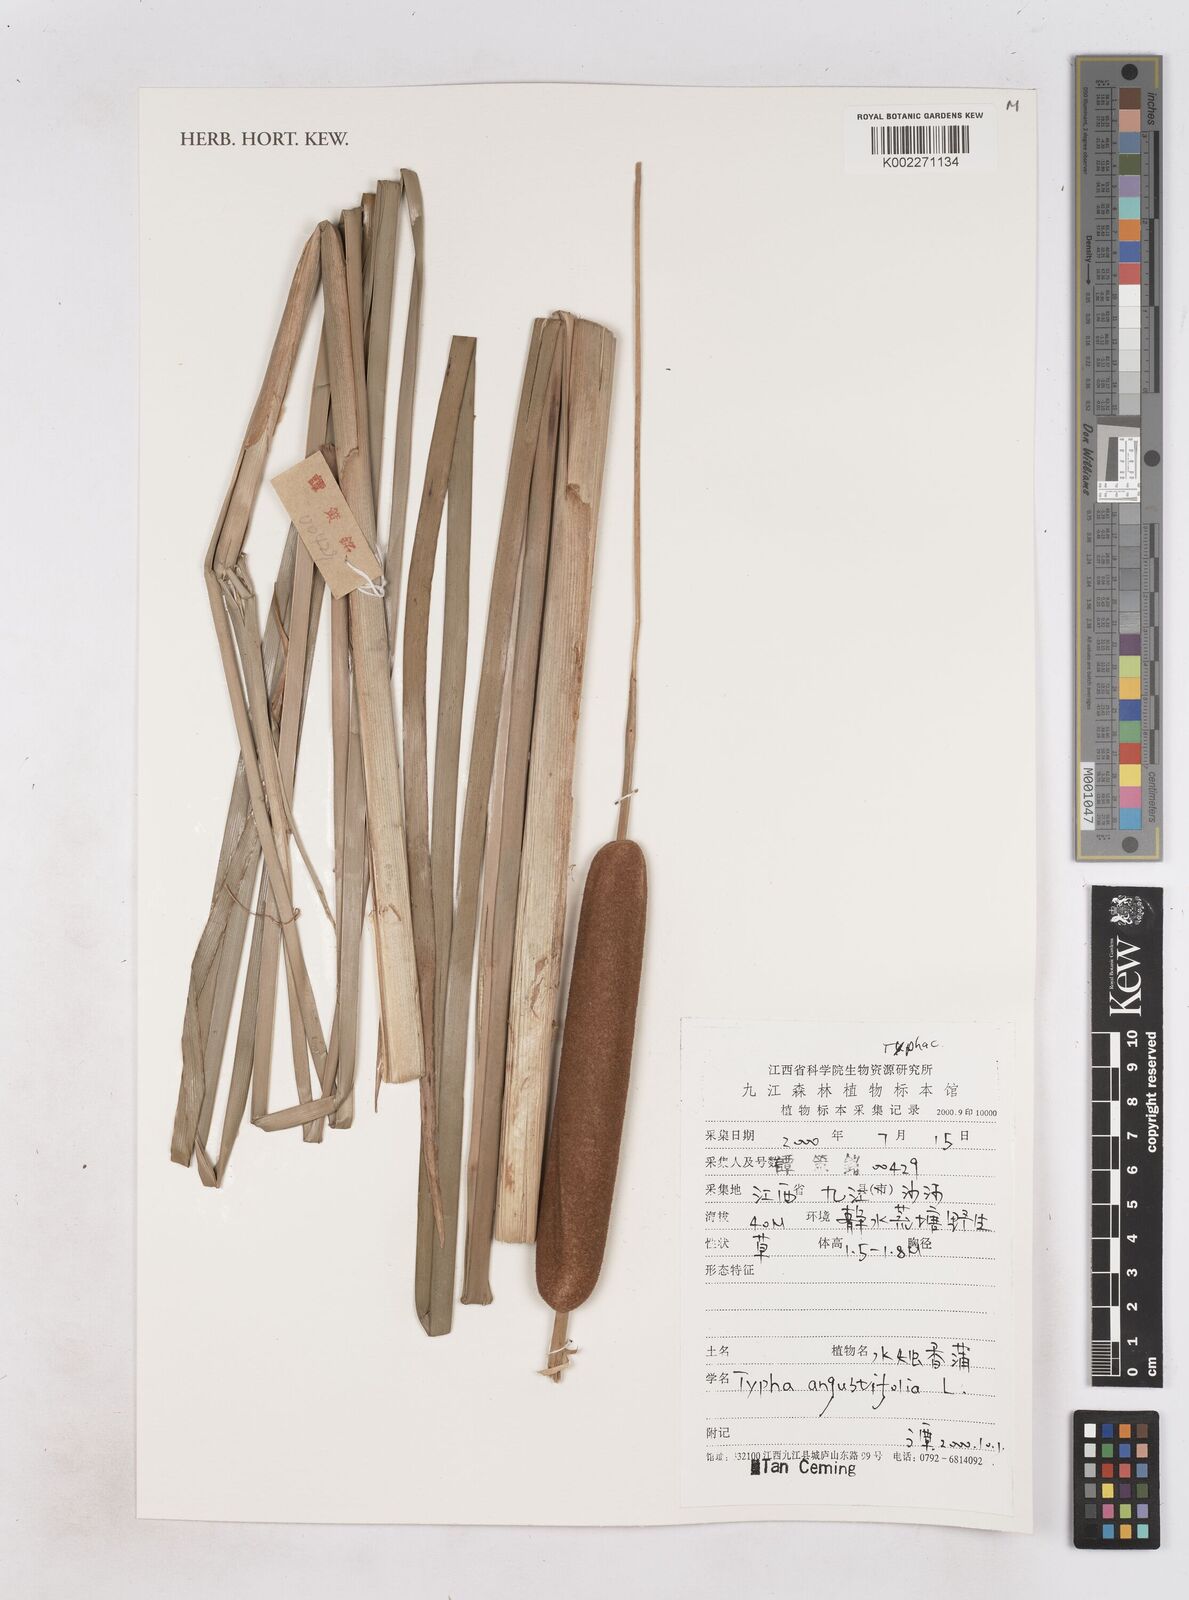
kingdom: Plantae
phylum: Tracheophyta
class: Liliopsida
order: Poales
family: Typhaceae
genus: Typha
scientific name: Typha angustifolia
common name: Lesser bulrush
